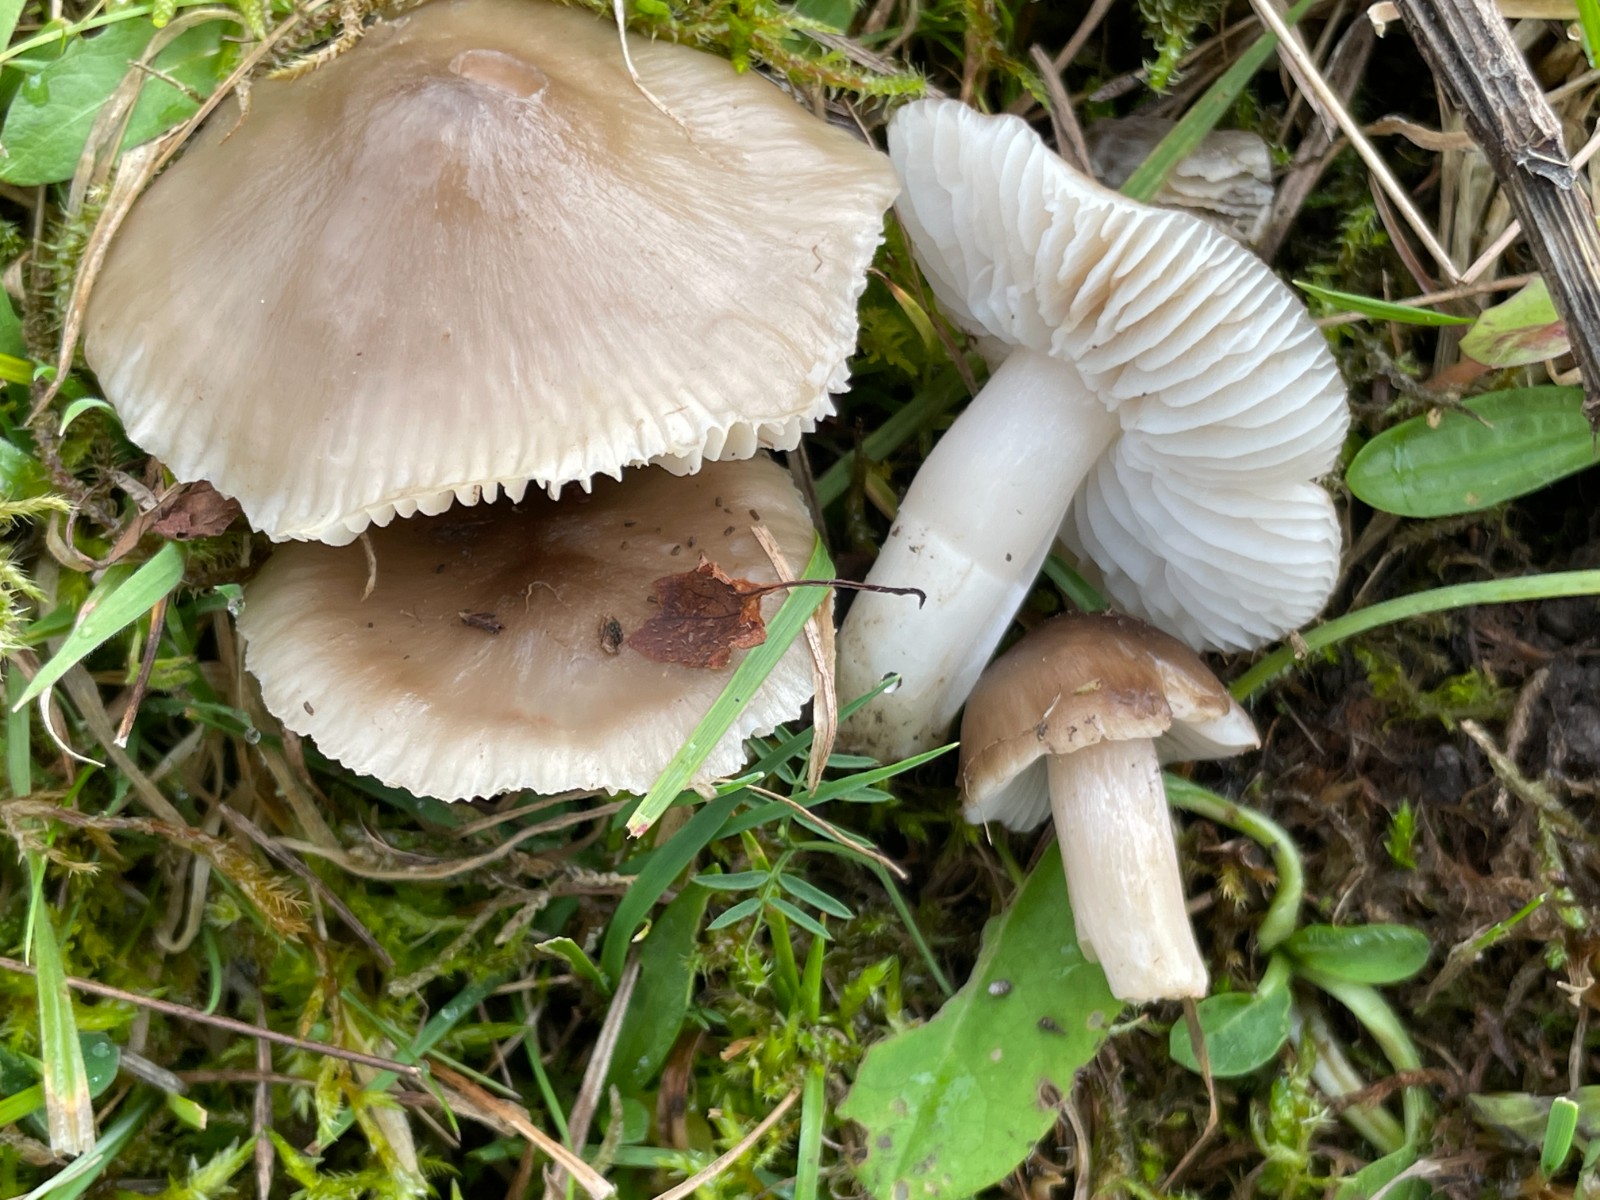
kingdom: Fungi
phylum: Basidiomycota
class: Agaricomycetes
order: Agaricales
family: Hygrophoraceae
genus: Cuphophyllus
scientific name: Cuphophyllus fornicatus
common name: gråbrun vokshat
